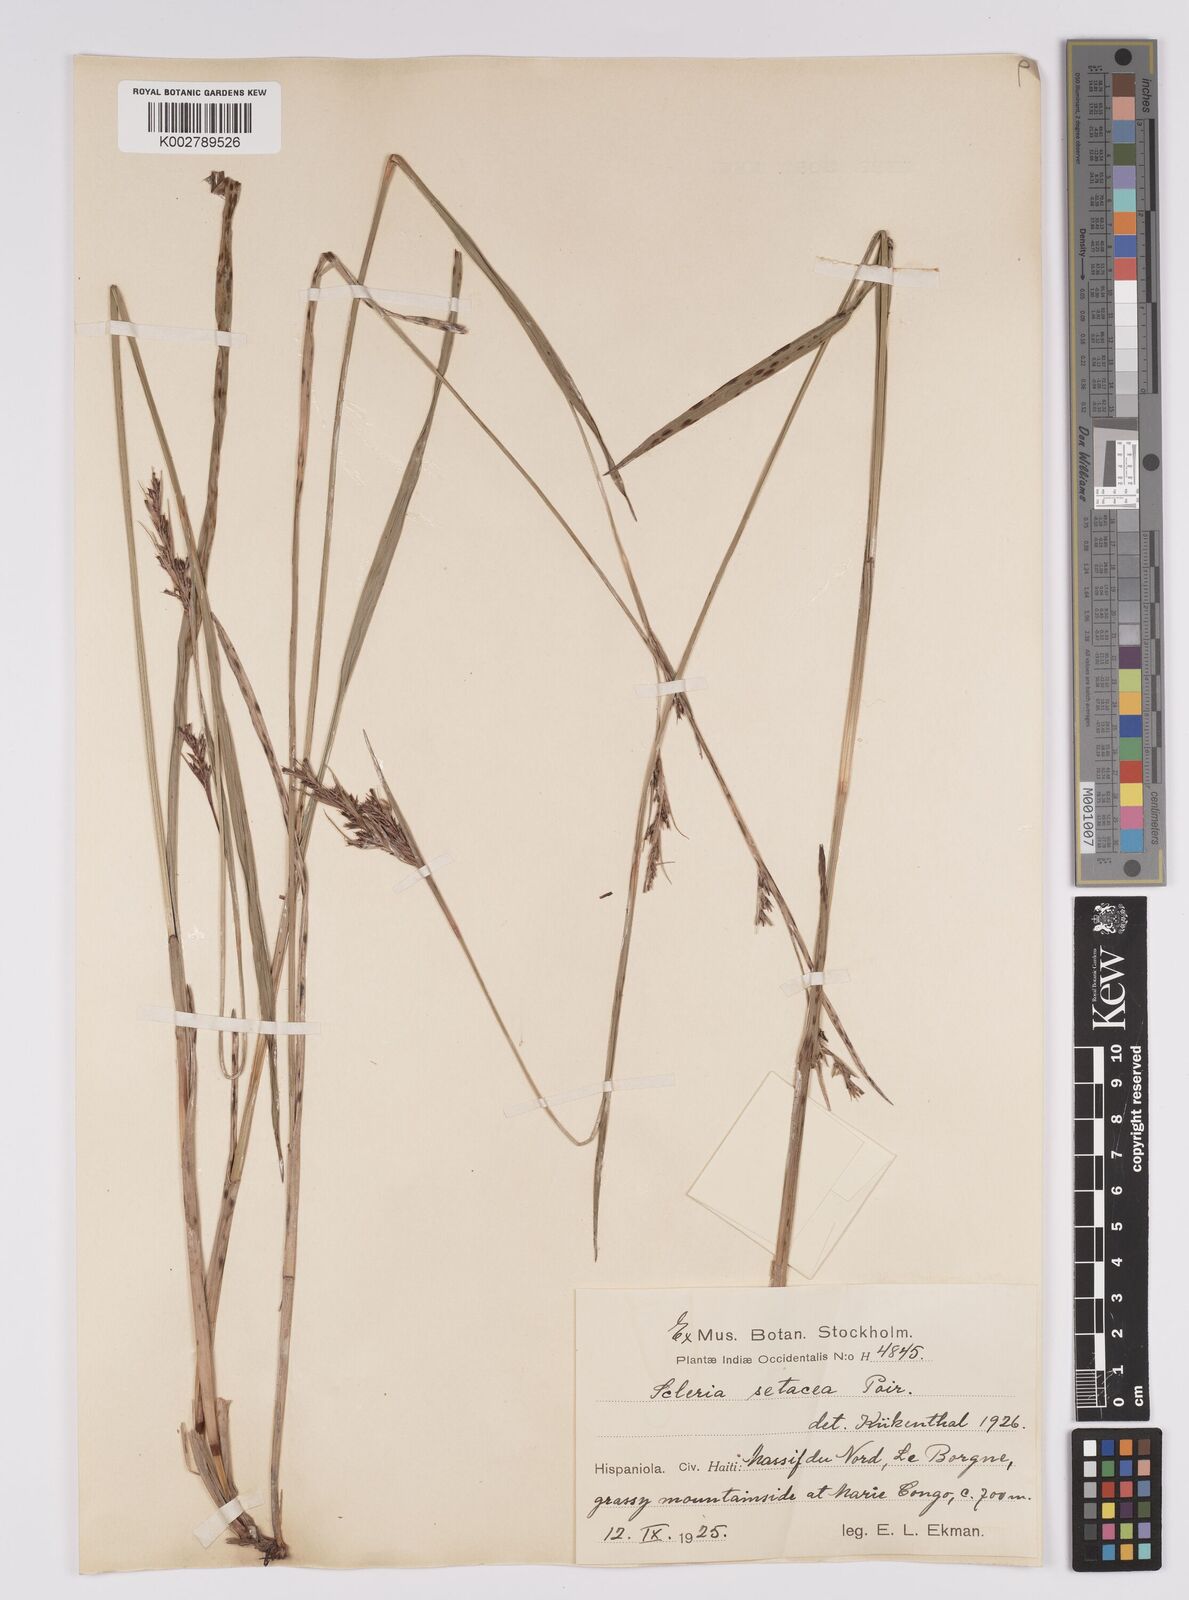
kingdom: Plantae
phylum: Tracheophyta
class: Liliopsida
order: Poales
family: Cyperaceae
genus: Rhynchospora
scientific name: Rhynchospora tenerrima
